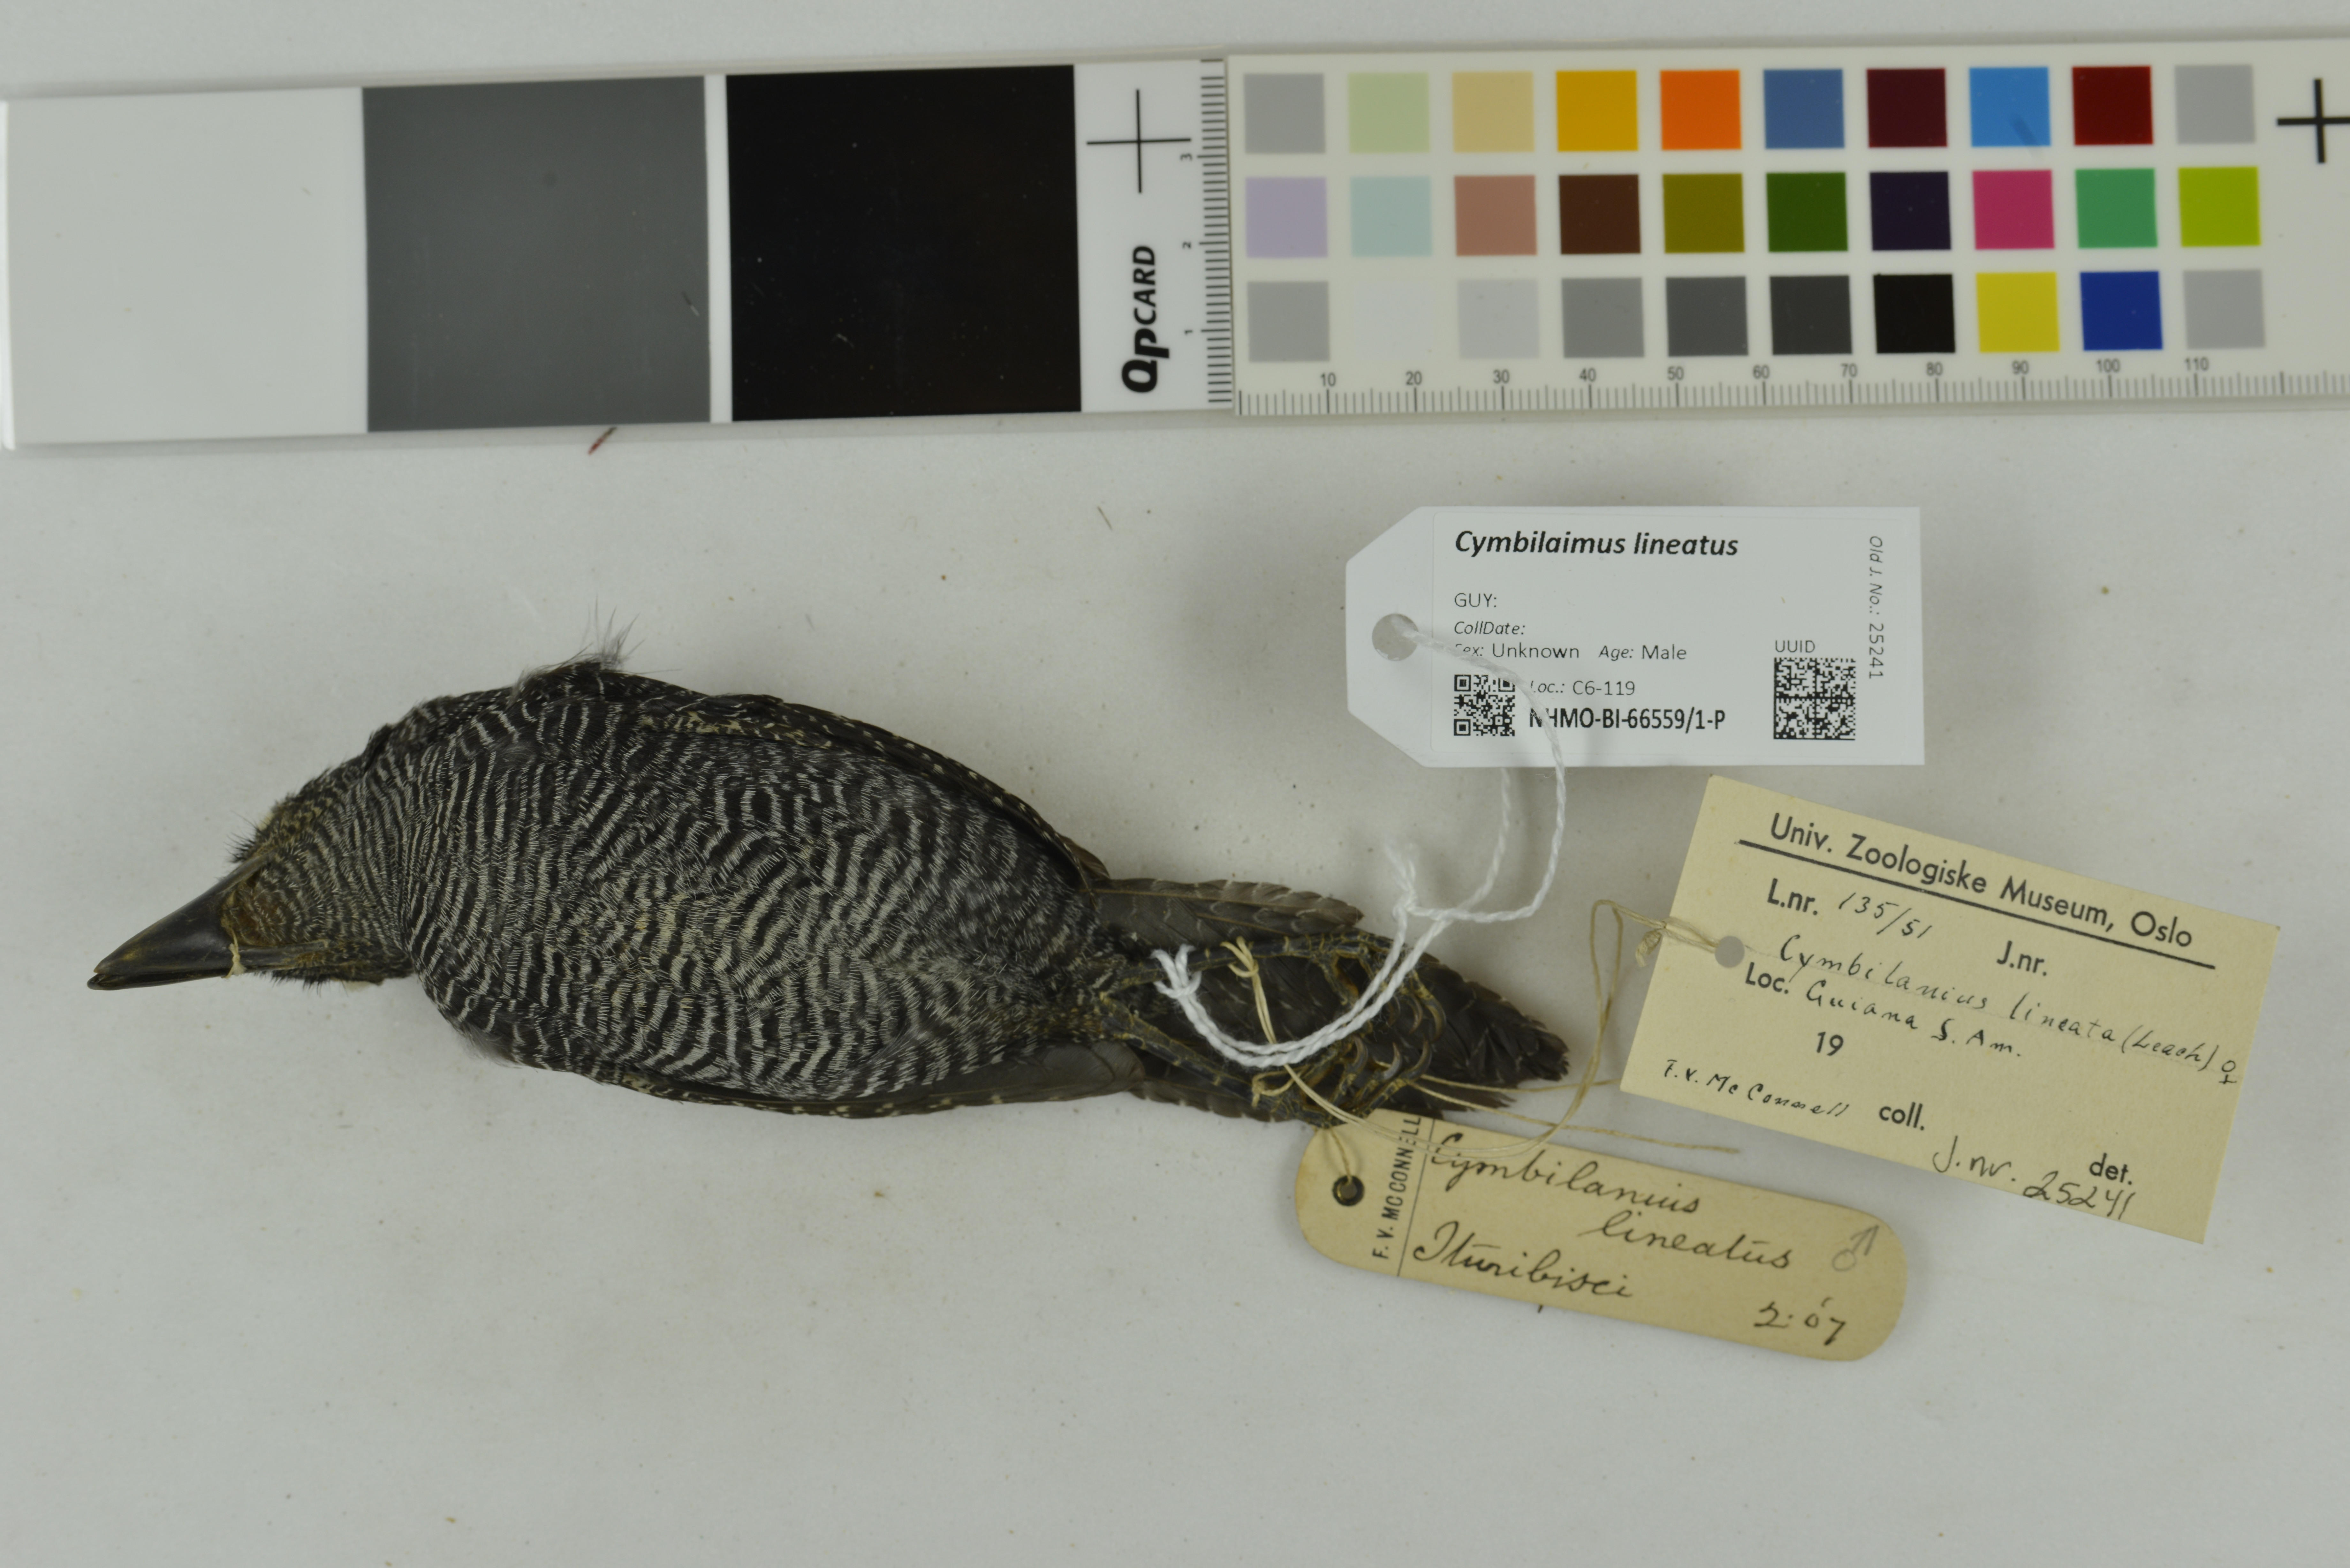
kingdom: Animalia
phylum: Chordata
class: Aves
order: Passeriformes
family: Thamnophilidae
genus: Cymbilaimus
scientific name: Cymbilaimus lineatus
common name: Fasciated antshrike
